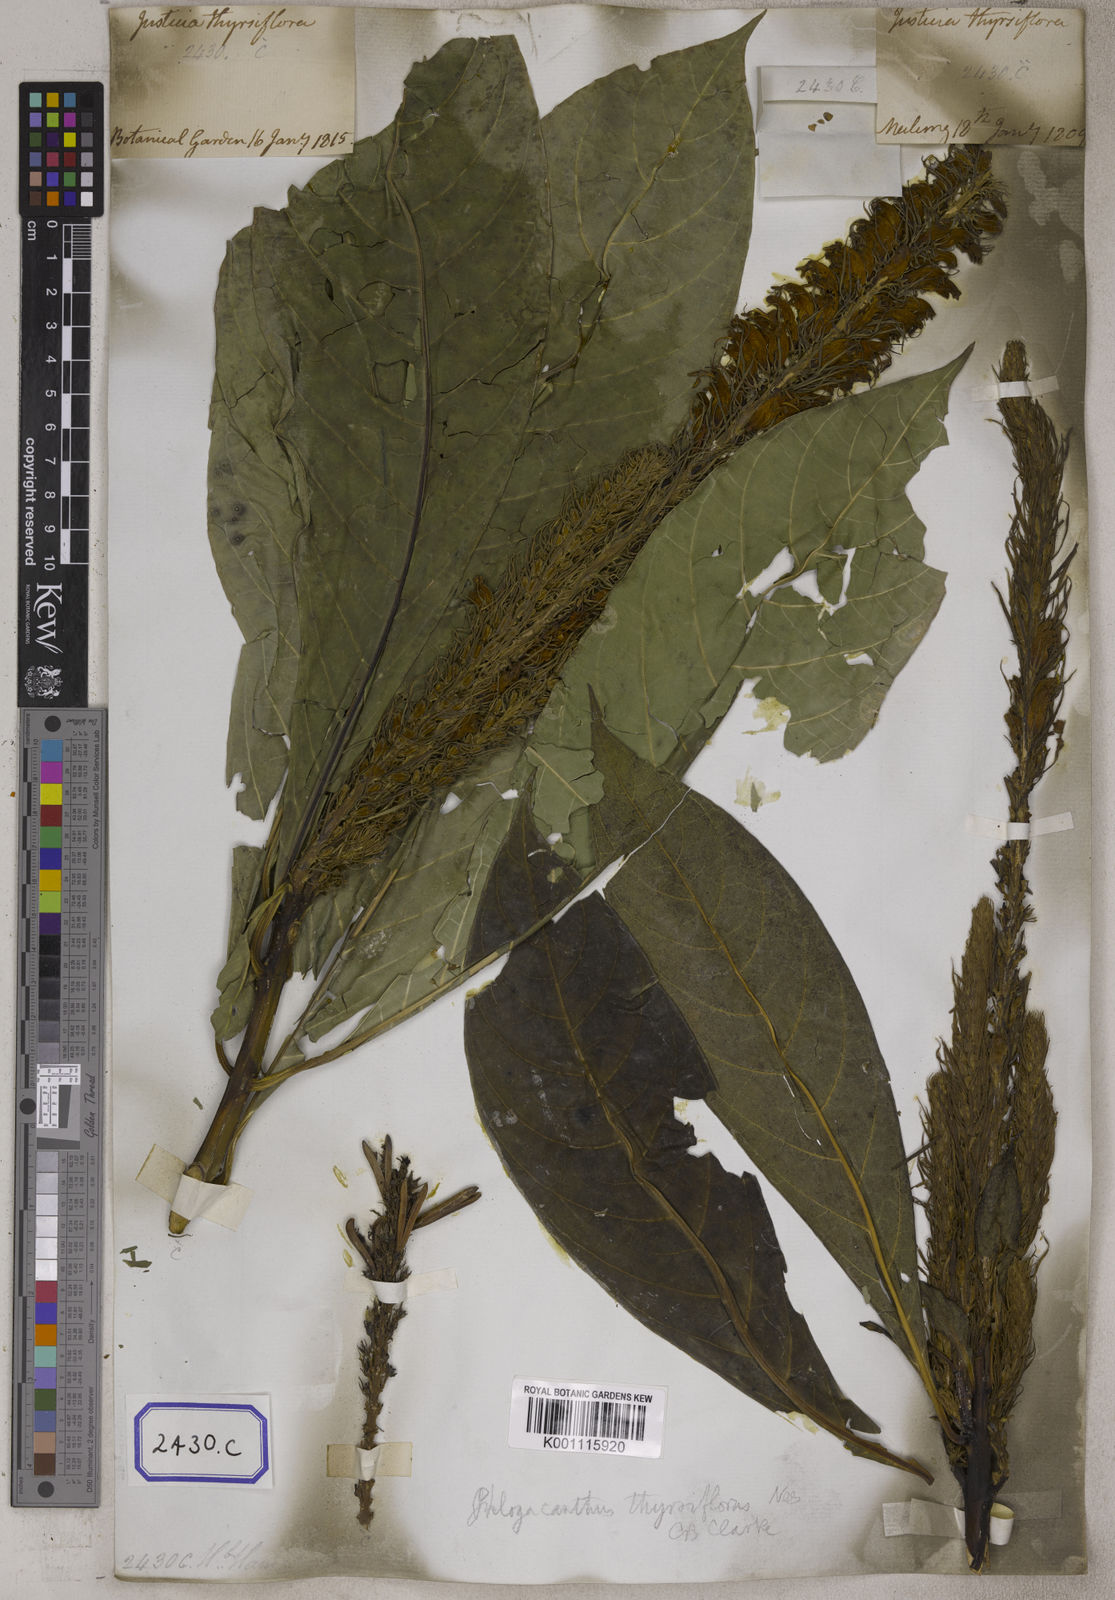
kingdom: Plantae
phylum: Tracheophyta
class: Magnoliopsida
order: Lamiales
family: Acanthaceae
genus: Justicia
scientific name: Justicia
